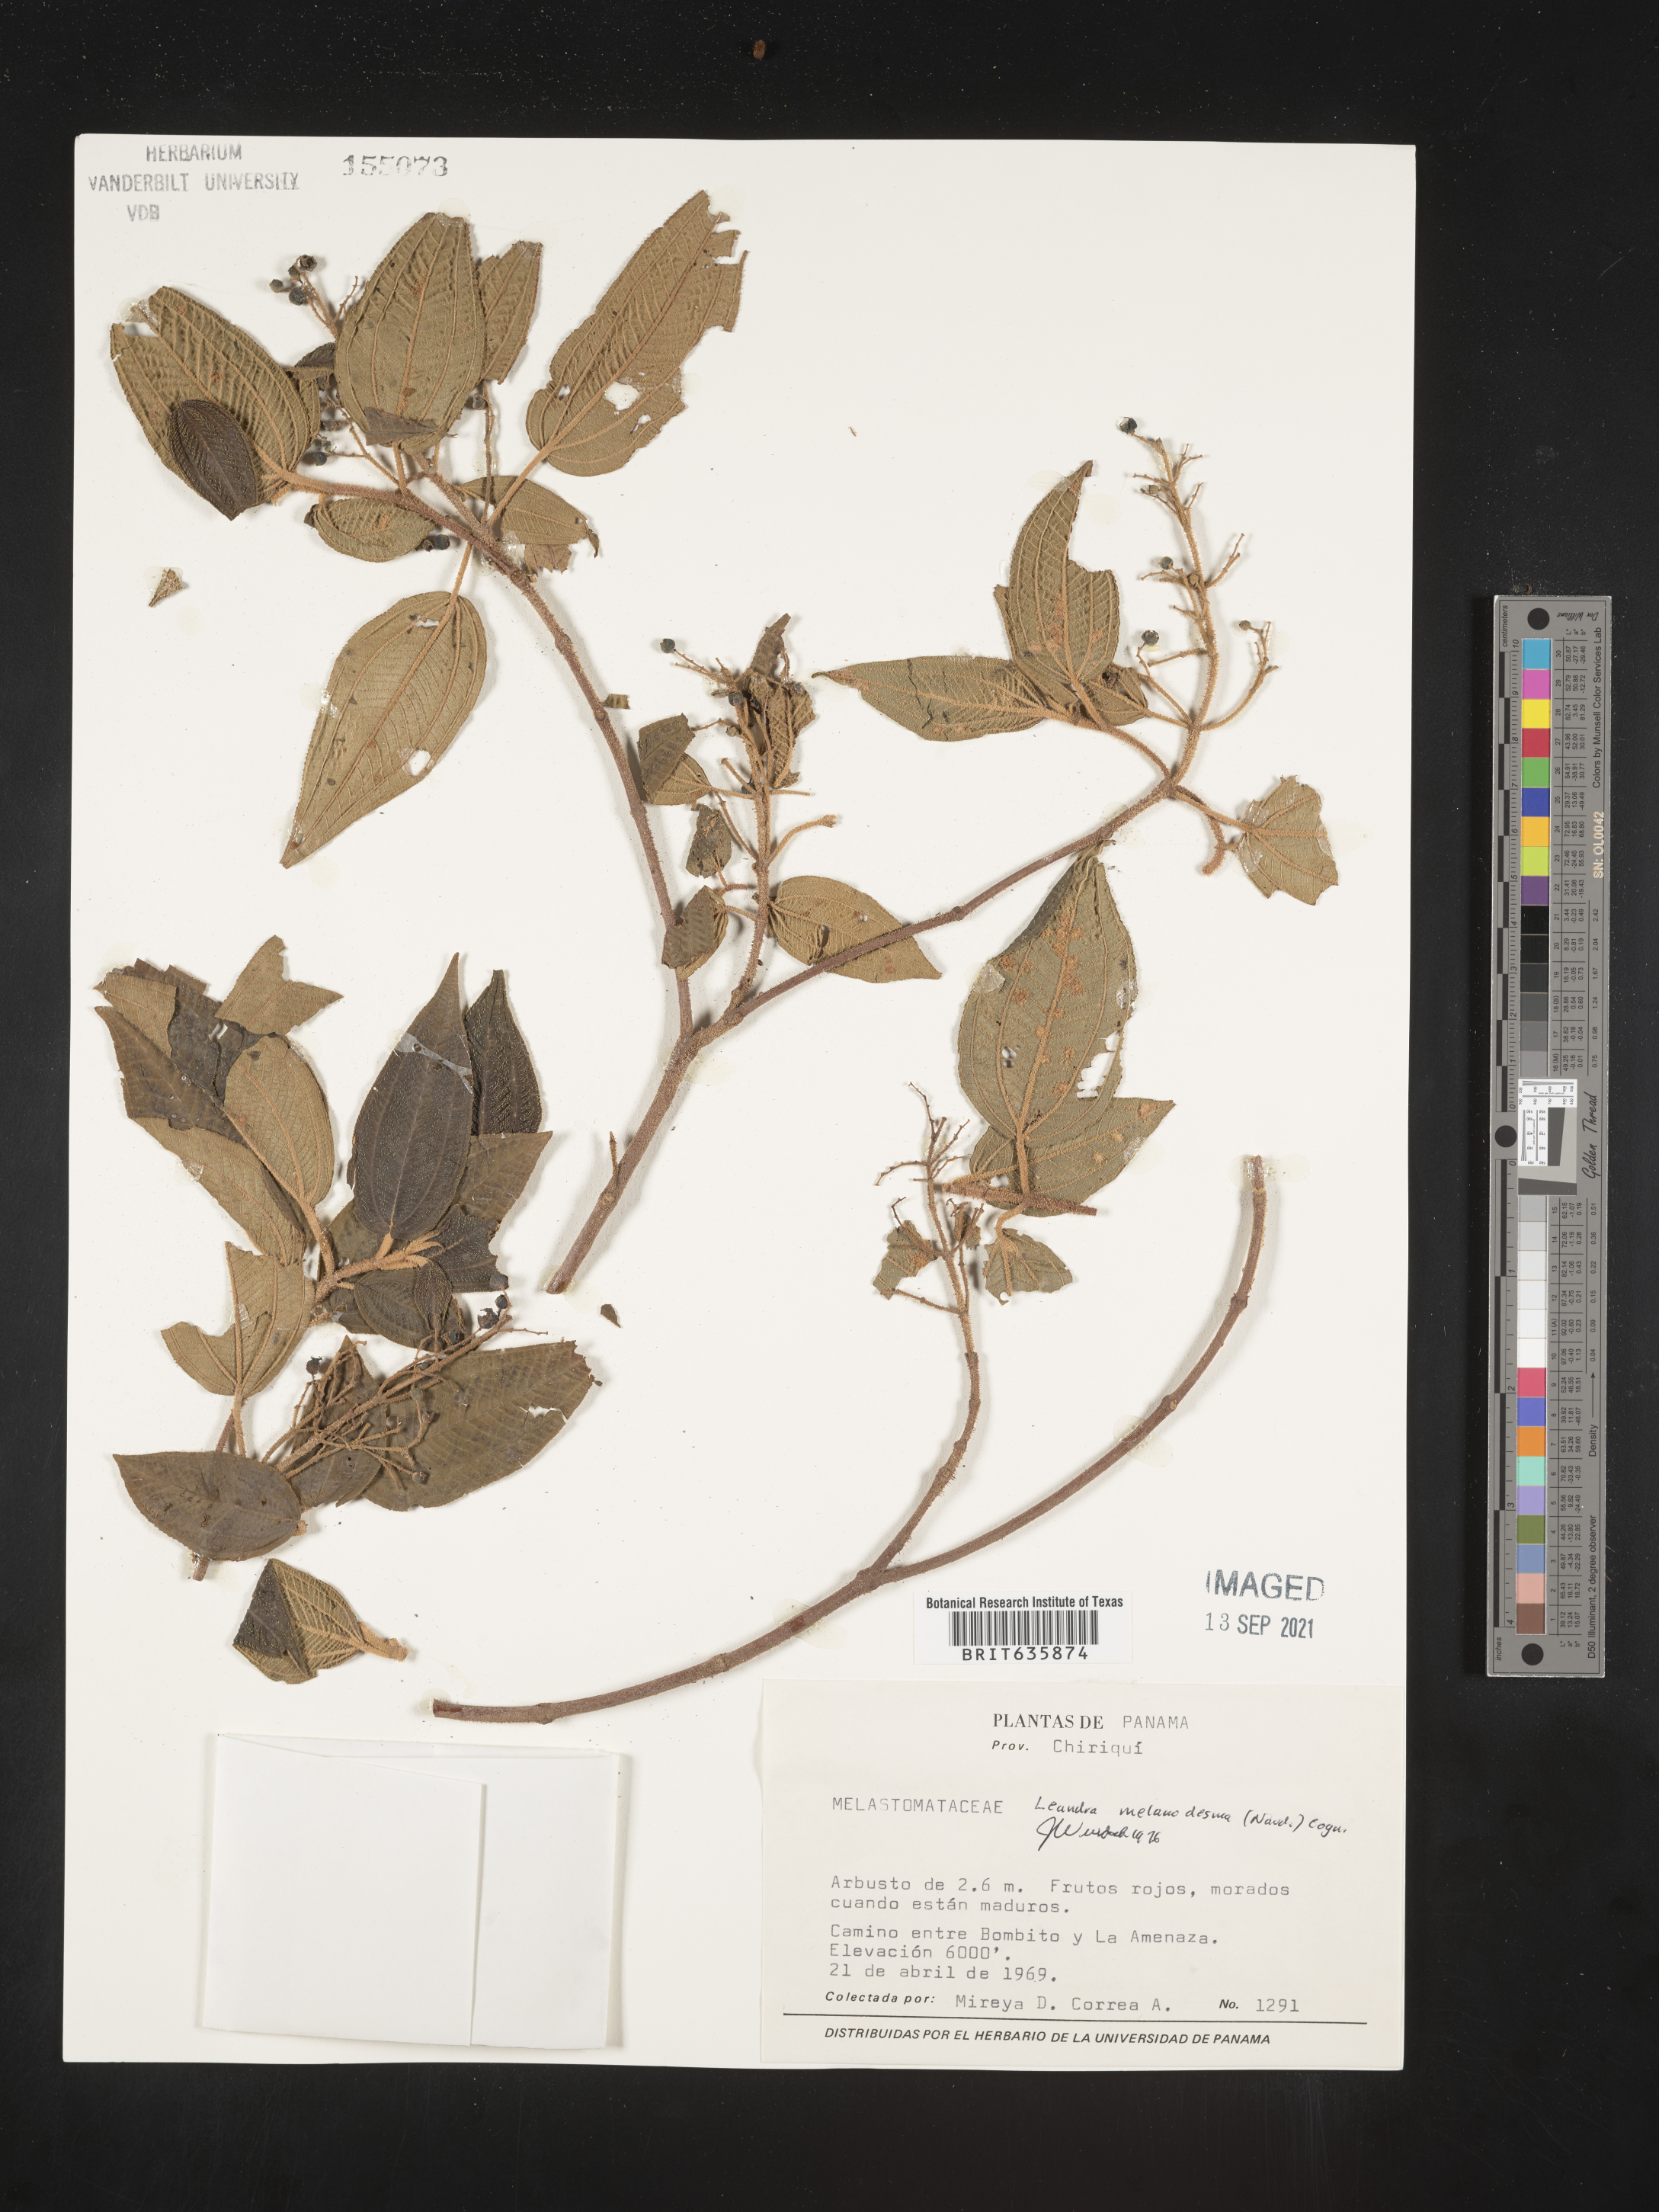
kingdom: Plantae
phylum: Tracheophyta
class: Magnoliopsida
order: Myrtales
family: Melastomataceae
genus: Miconia
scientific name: Miconia
